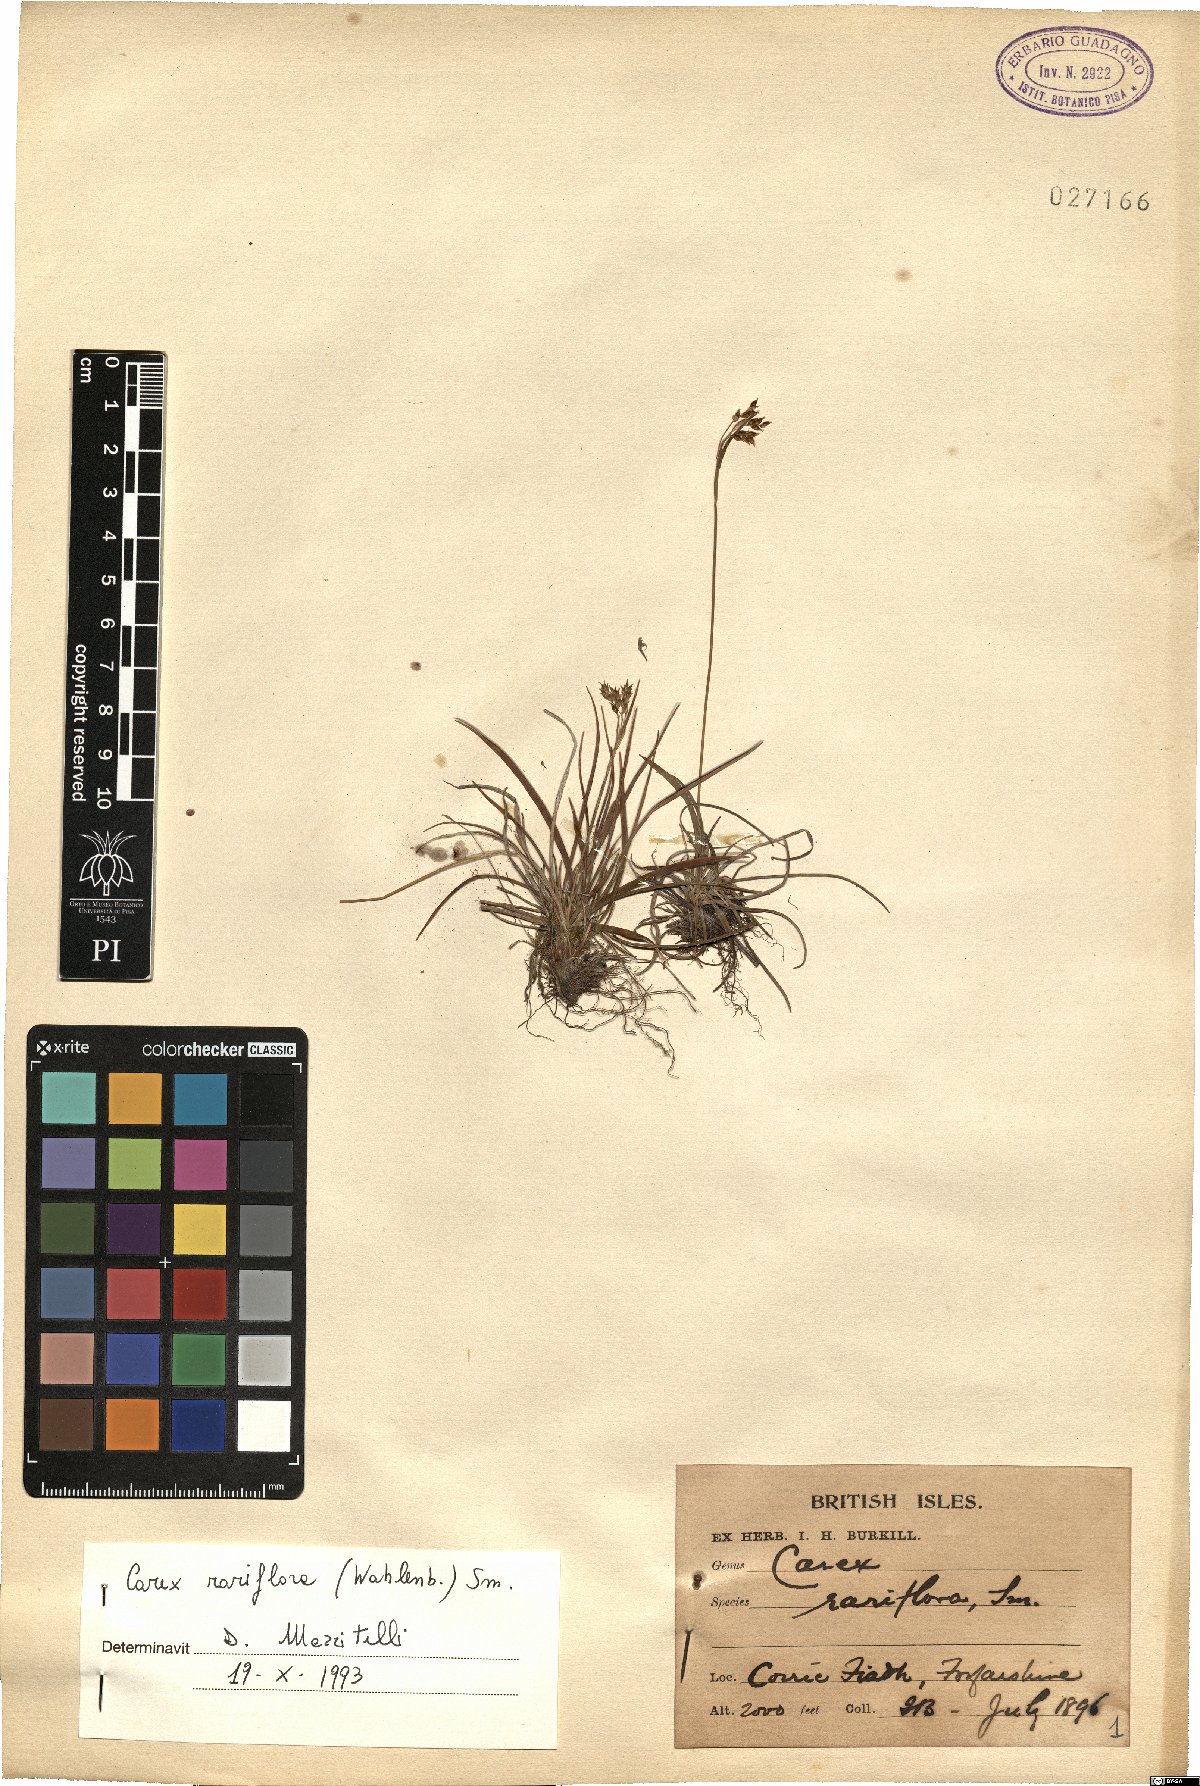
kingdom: Plantae
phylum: Tracheophyta
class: Liliopsida
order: Poales
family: Cyperaceae
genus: Carex
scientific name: Carex rariflora
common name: Loose-flowered alpine sedge
